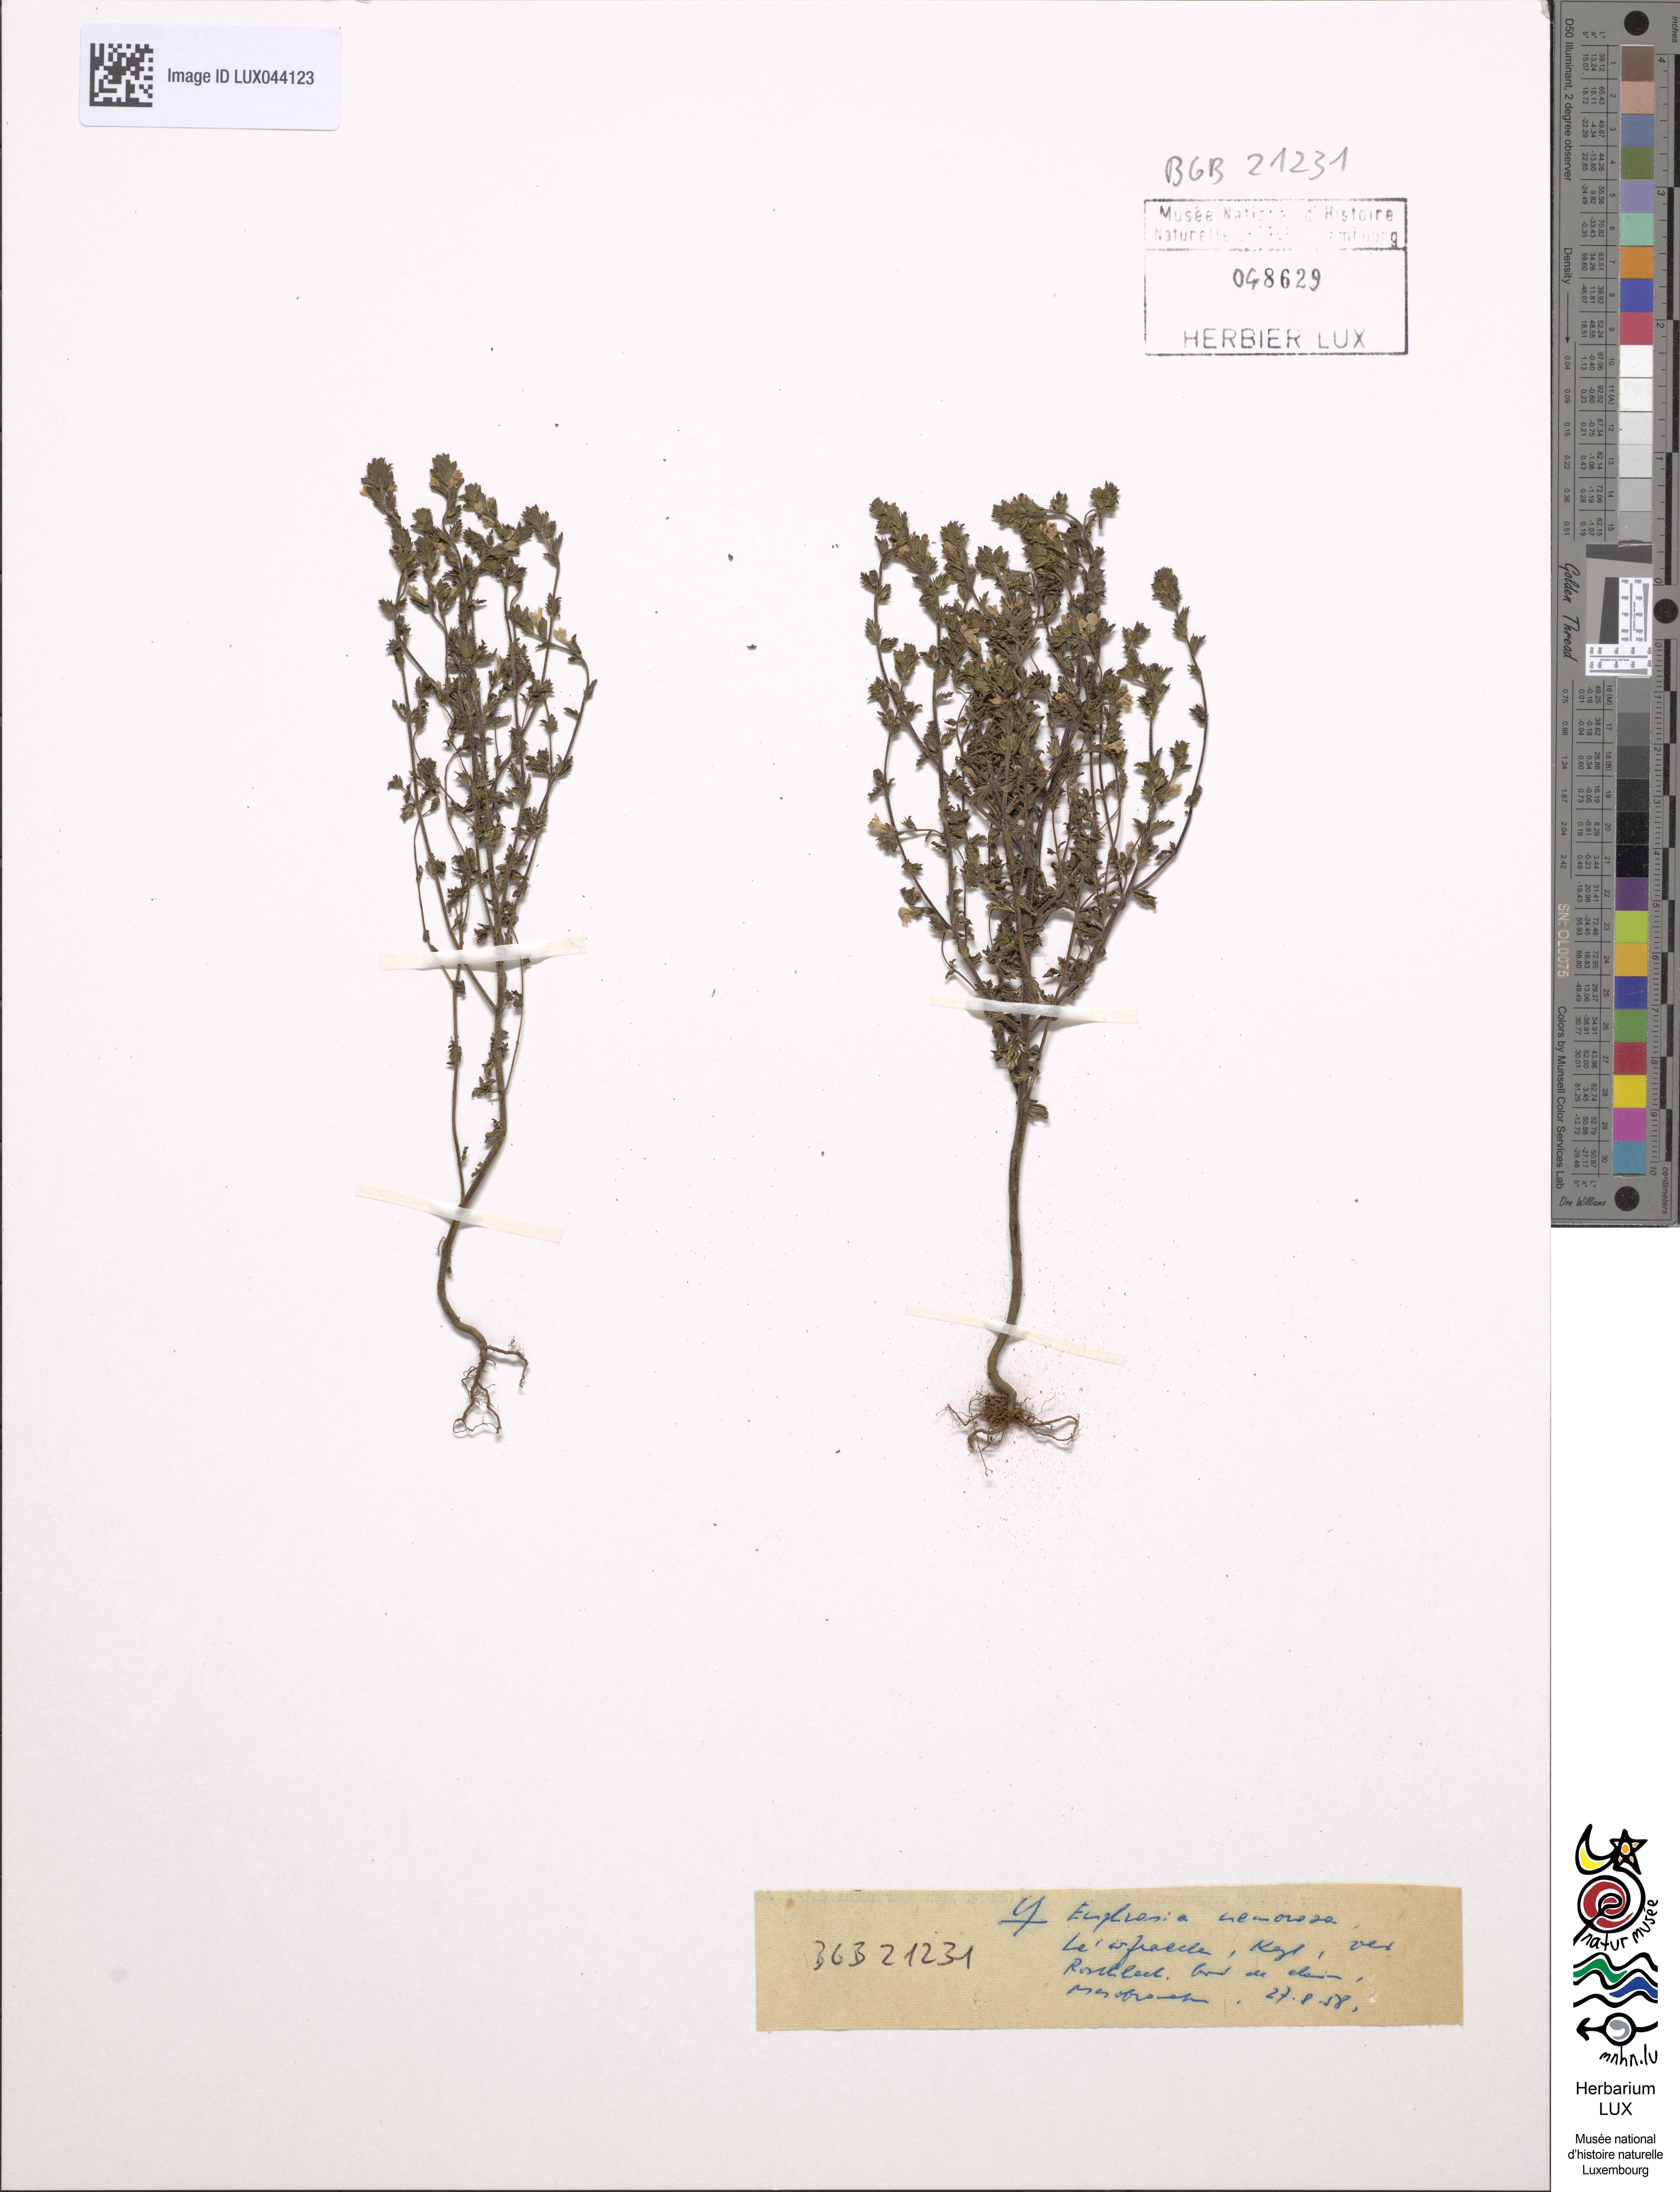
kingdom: Plantae
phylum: Tracheophyta
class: Magnoliopsida
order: Lamiales
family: Orobanchaceae
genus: Euphrasia
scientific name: Euphrasia nemorosa
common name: Common eyebright
